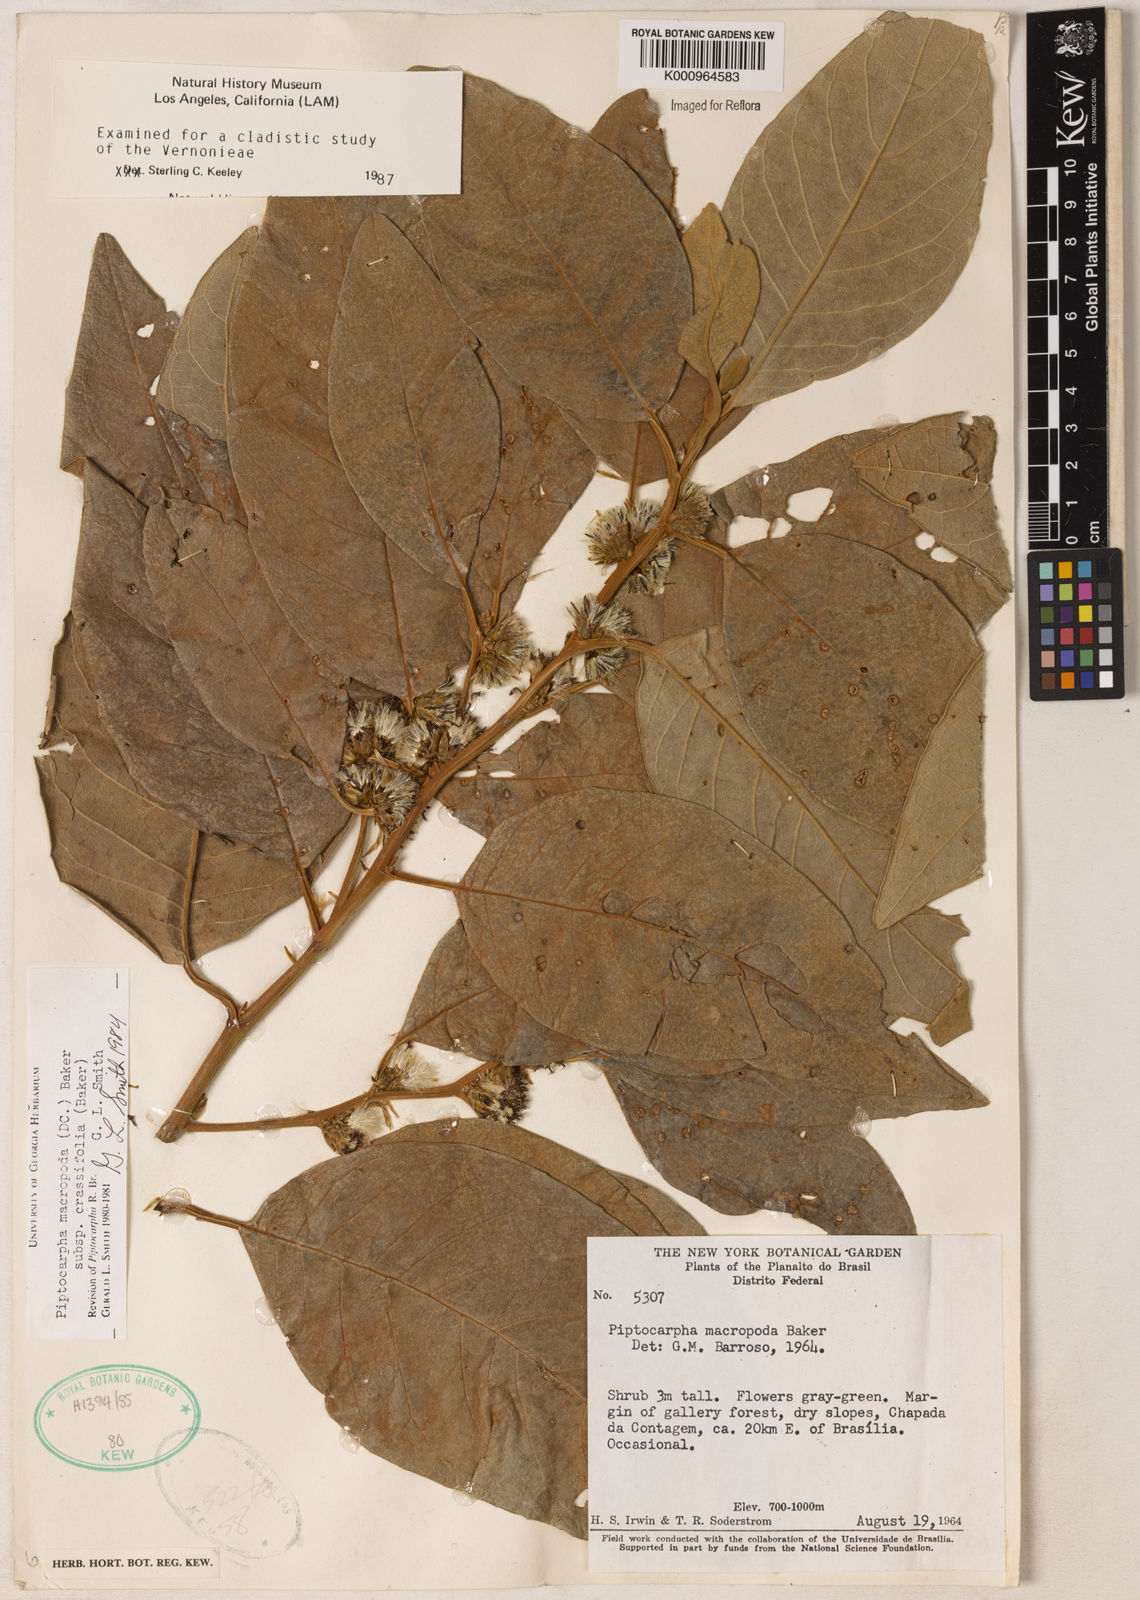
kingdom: Plantae
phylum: Tracheophyta
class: Magnoliopsida
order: Asterales
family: Asteraceae
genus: Piptocarpha
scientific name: Piptocarpha macropoda
